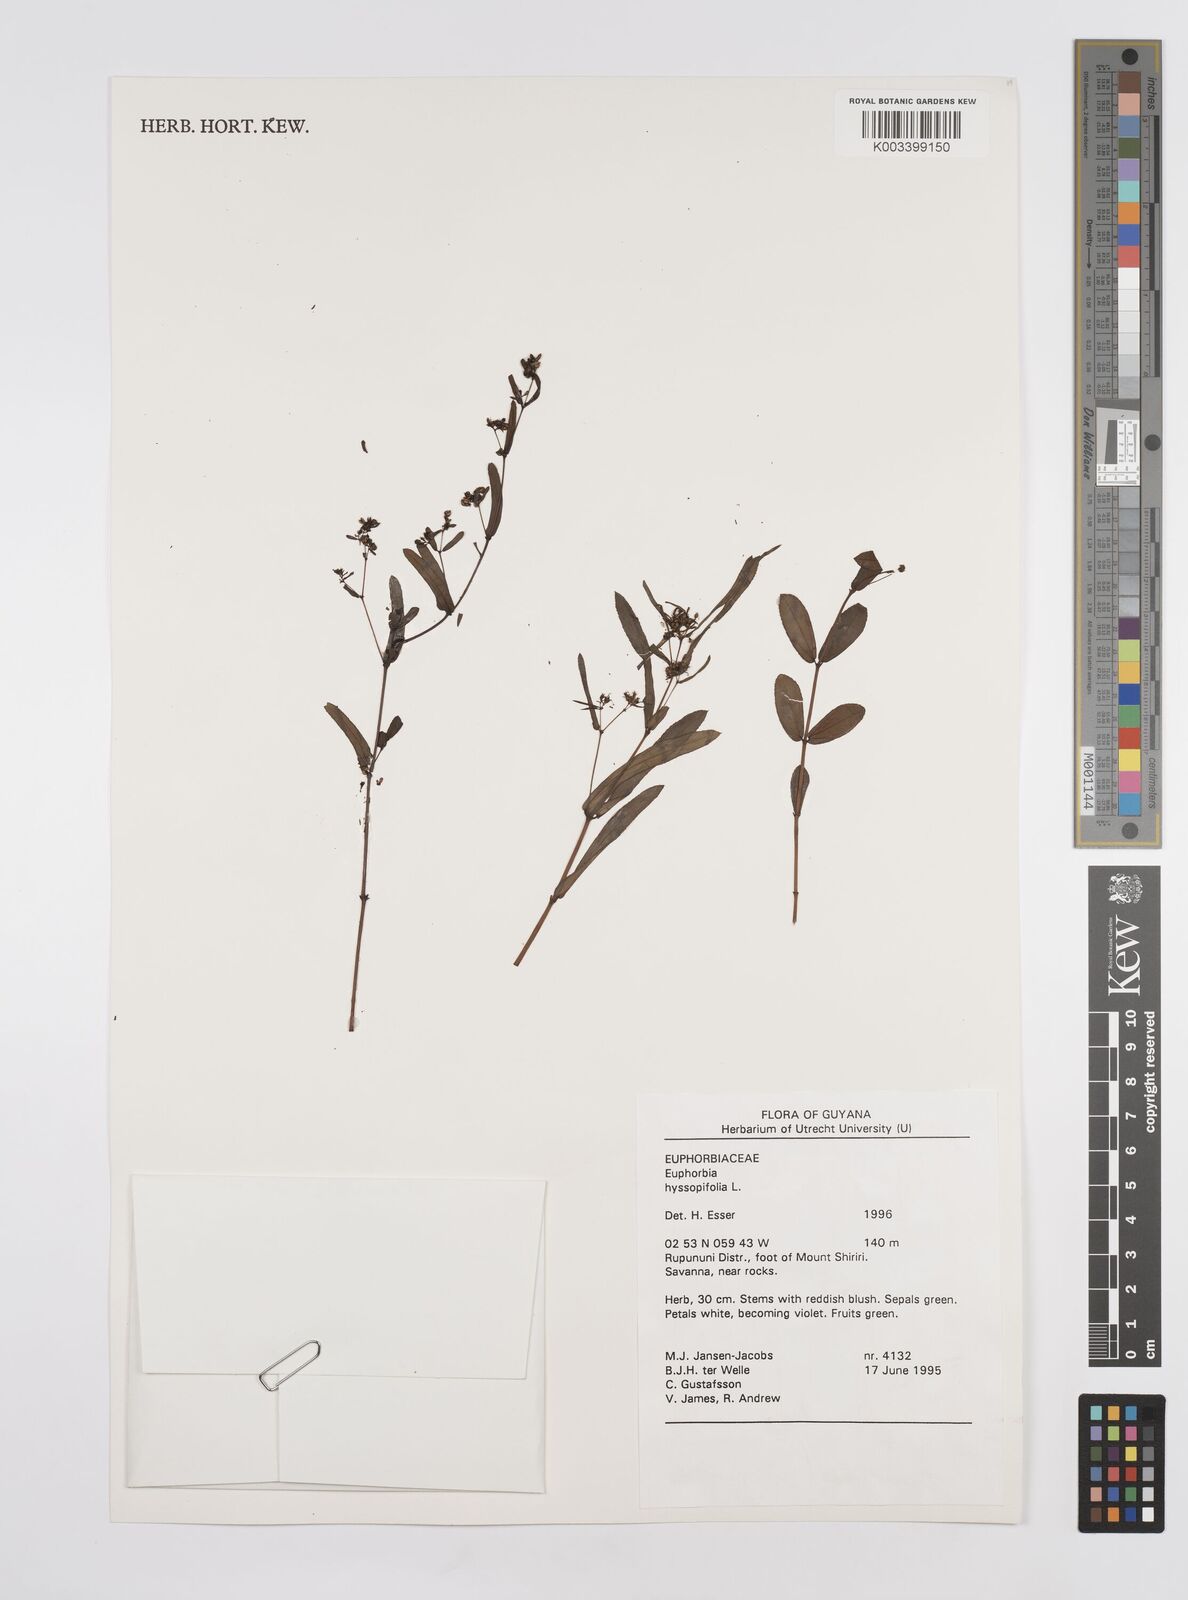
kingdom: Plantae
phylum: Tracheophyta
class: Magnoliopsida
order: Malpighiales
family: Euphorbiaceae
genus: Euphorbia
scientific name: Euphorbia hyssopifolia
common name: Hyssopleaf sandmat
